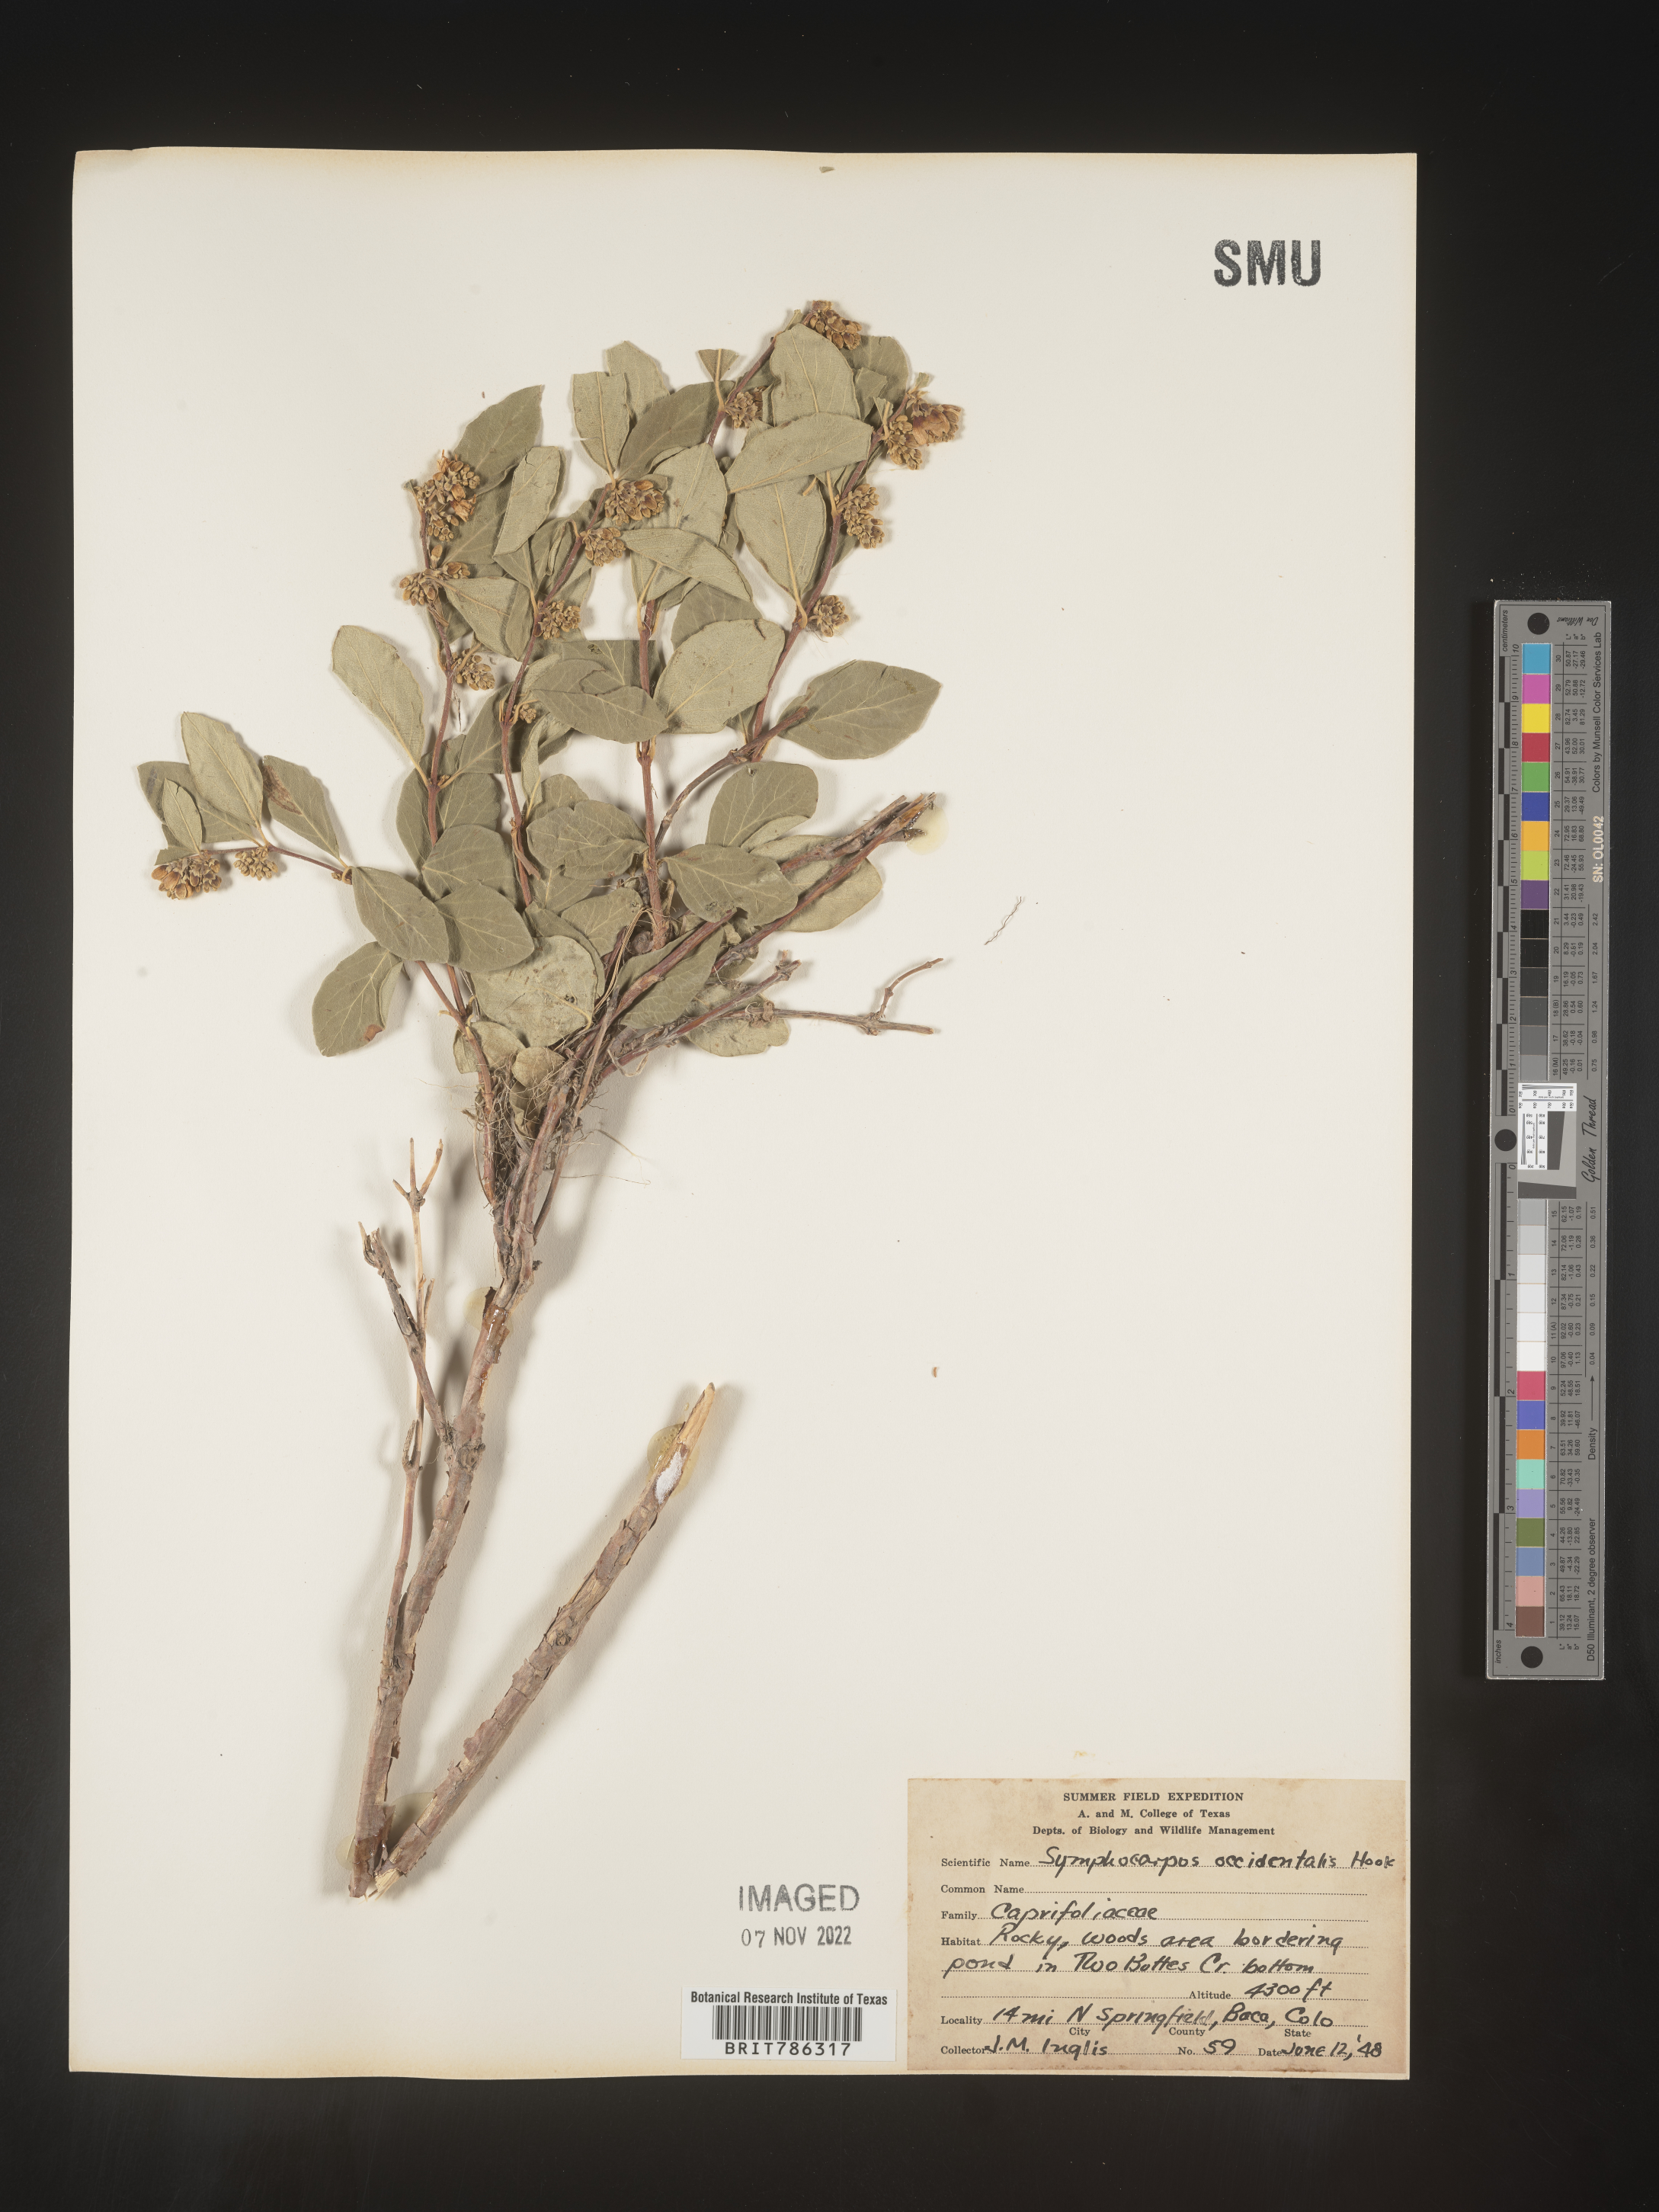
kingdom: Plantae
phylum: Tracheophyta
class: Magnoliopsida
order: Dipsacales
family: Caprifoliaceae
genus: Symphoricarpos
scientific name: Symphoricarpos occidentalis
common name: Wolfberry
